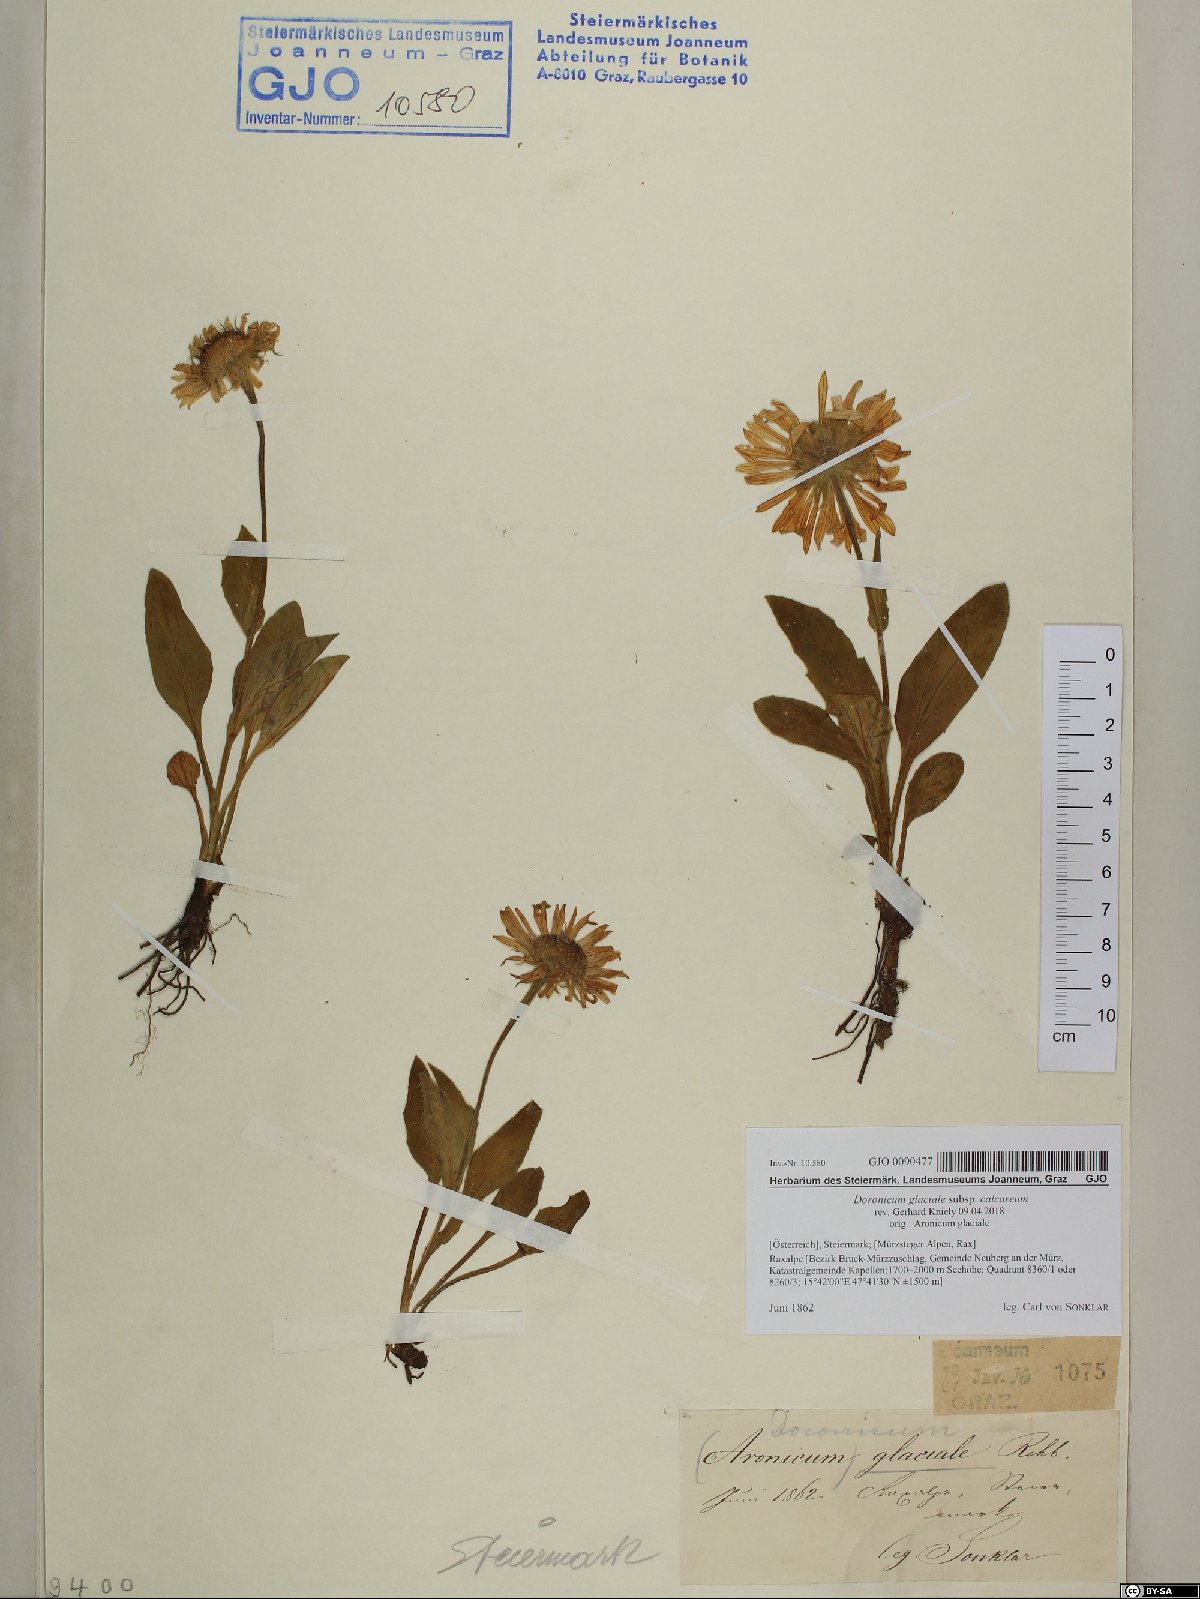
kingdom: Plantae
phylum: Tracheophyta
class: Magnoliopsida
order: Asterales
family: Asteraceae
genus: Doronicum
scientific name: Doronicum glaciale
